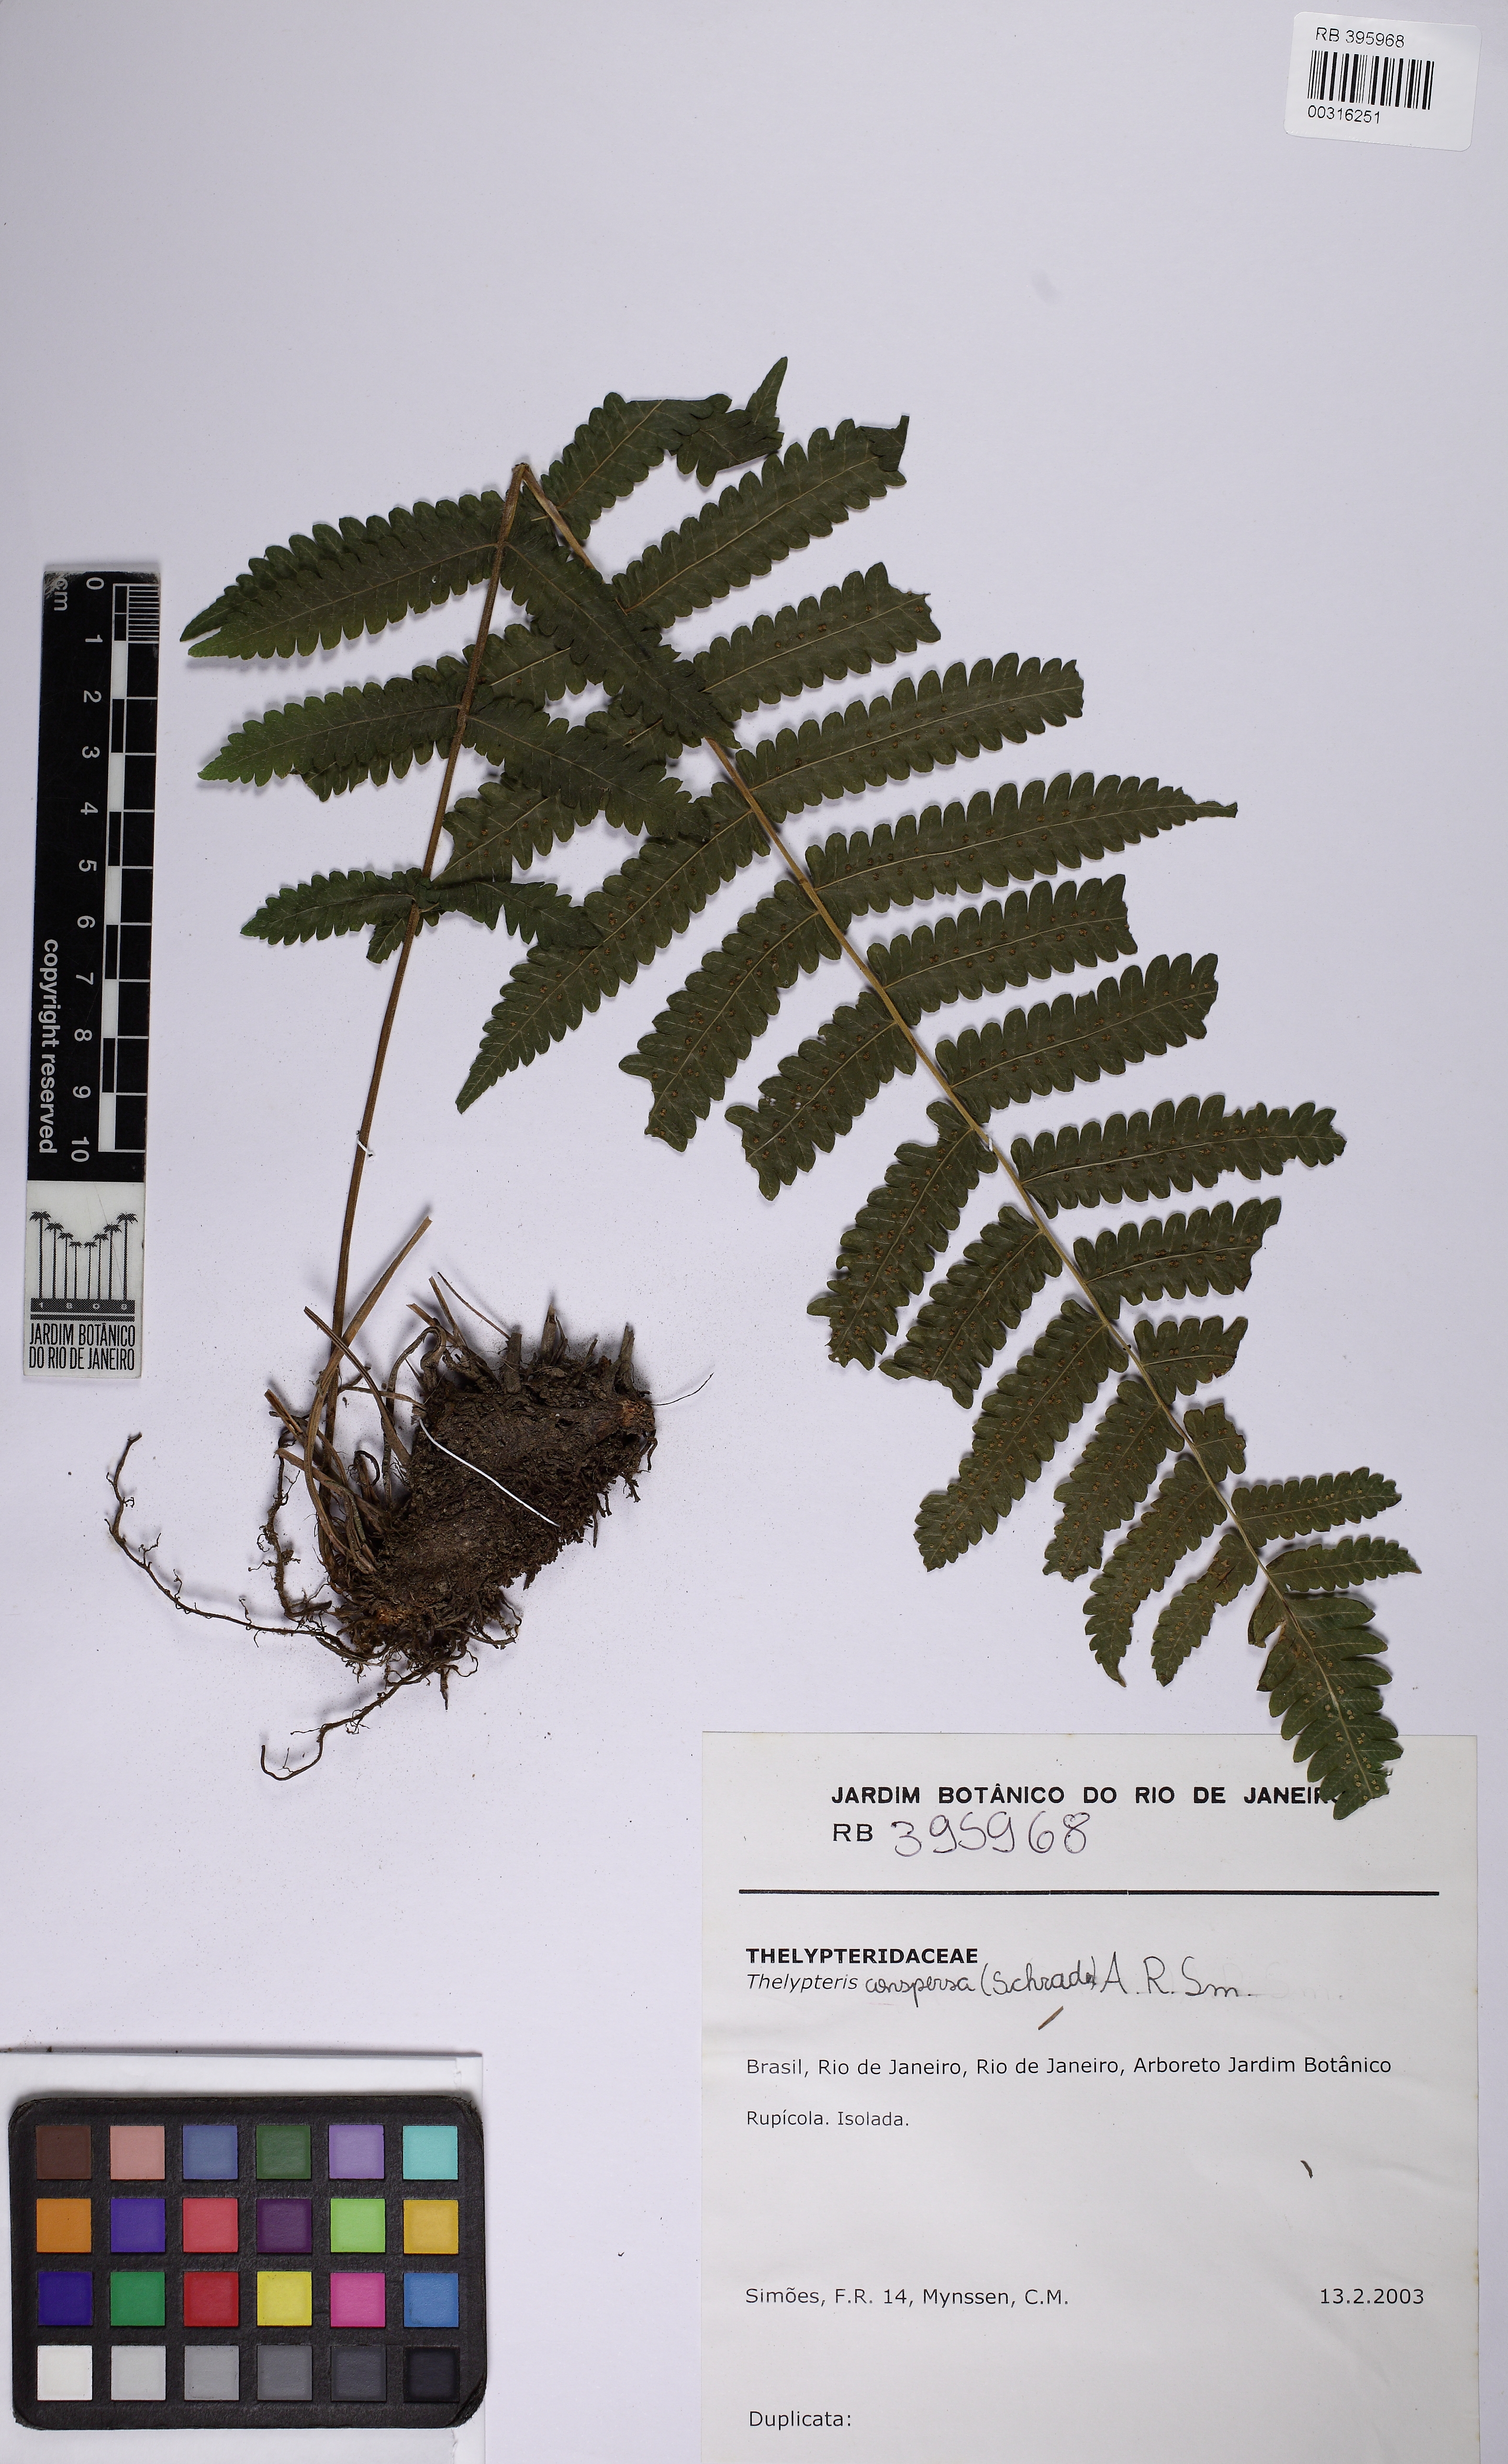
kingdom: Plantae
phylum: Tracheophyta
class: Polypodiopsida
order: Polypodiales
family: Thelypteridaceae
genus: Christella
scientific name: Christella conspersa
